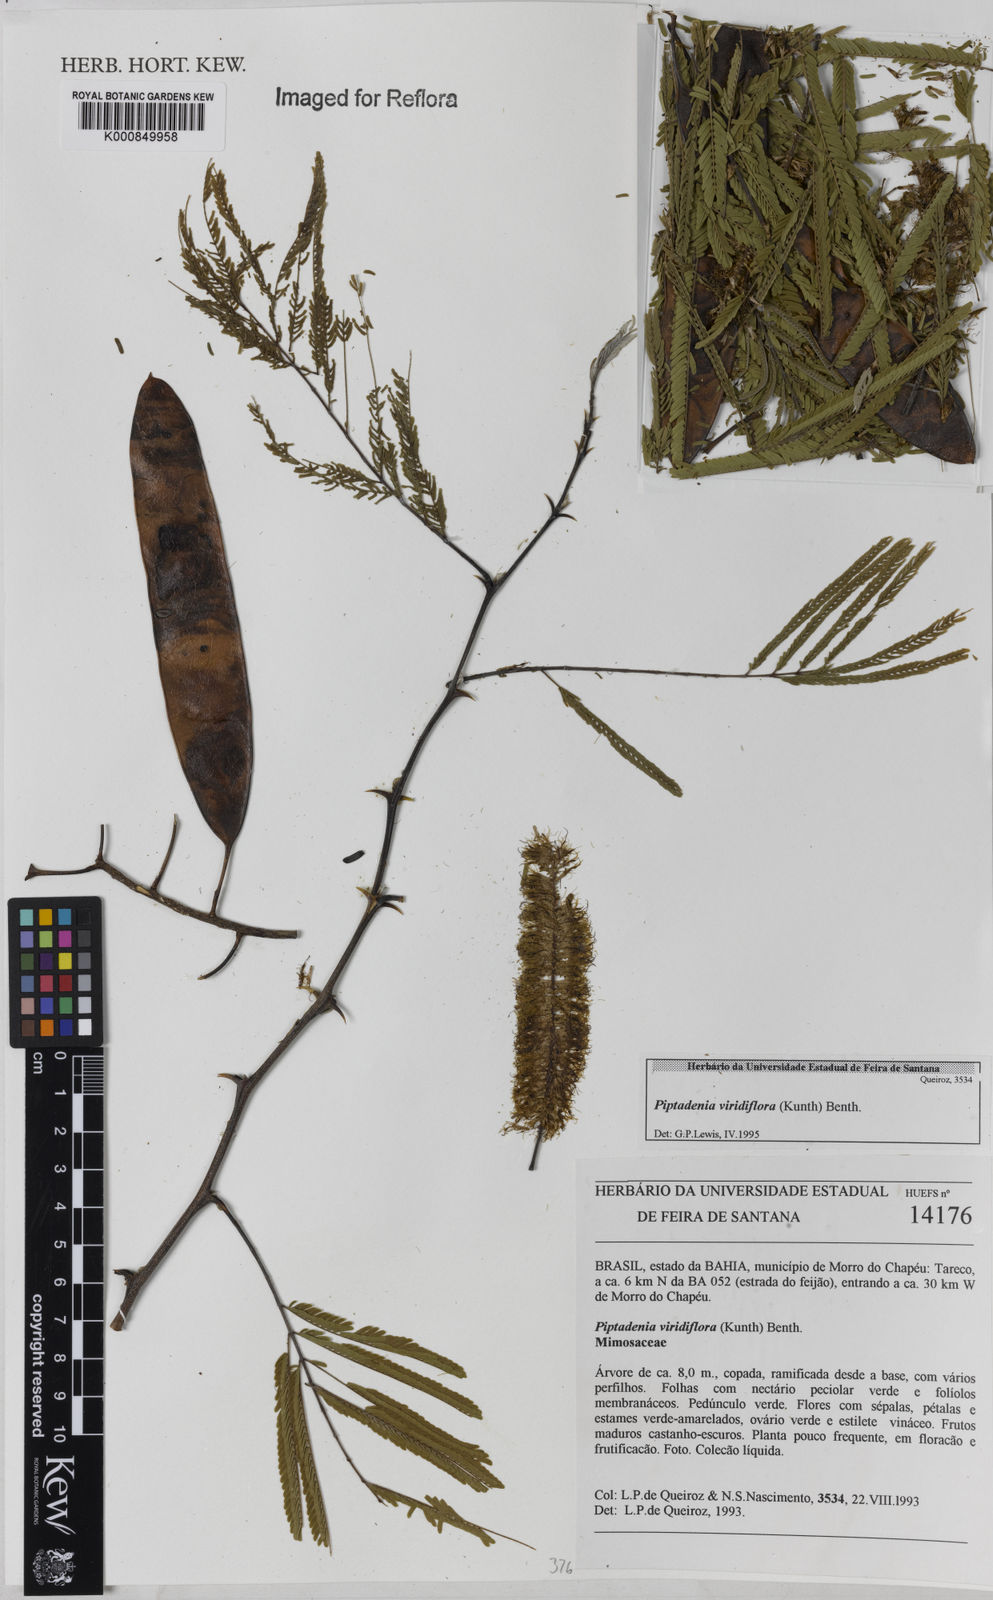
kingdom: Plantae
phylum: Tracheophyta
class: Magnoliopsida
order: Fabales
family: Fabaceae
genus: Lachesiodendron
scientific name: Lachesiodendron viridiflorum
